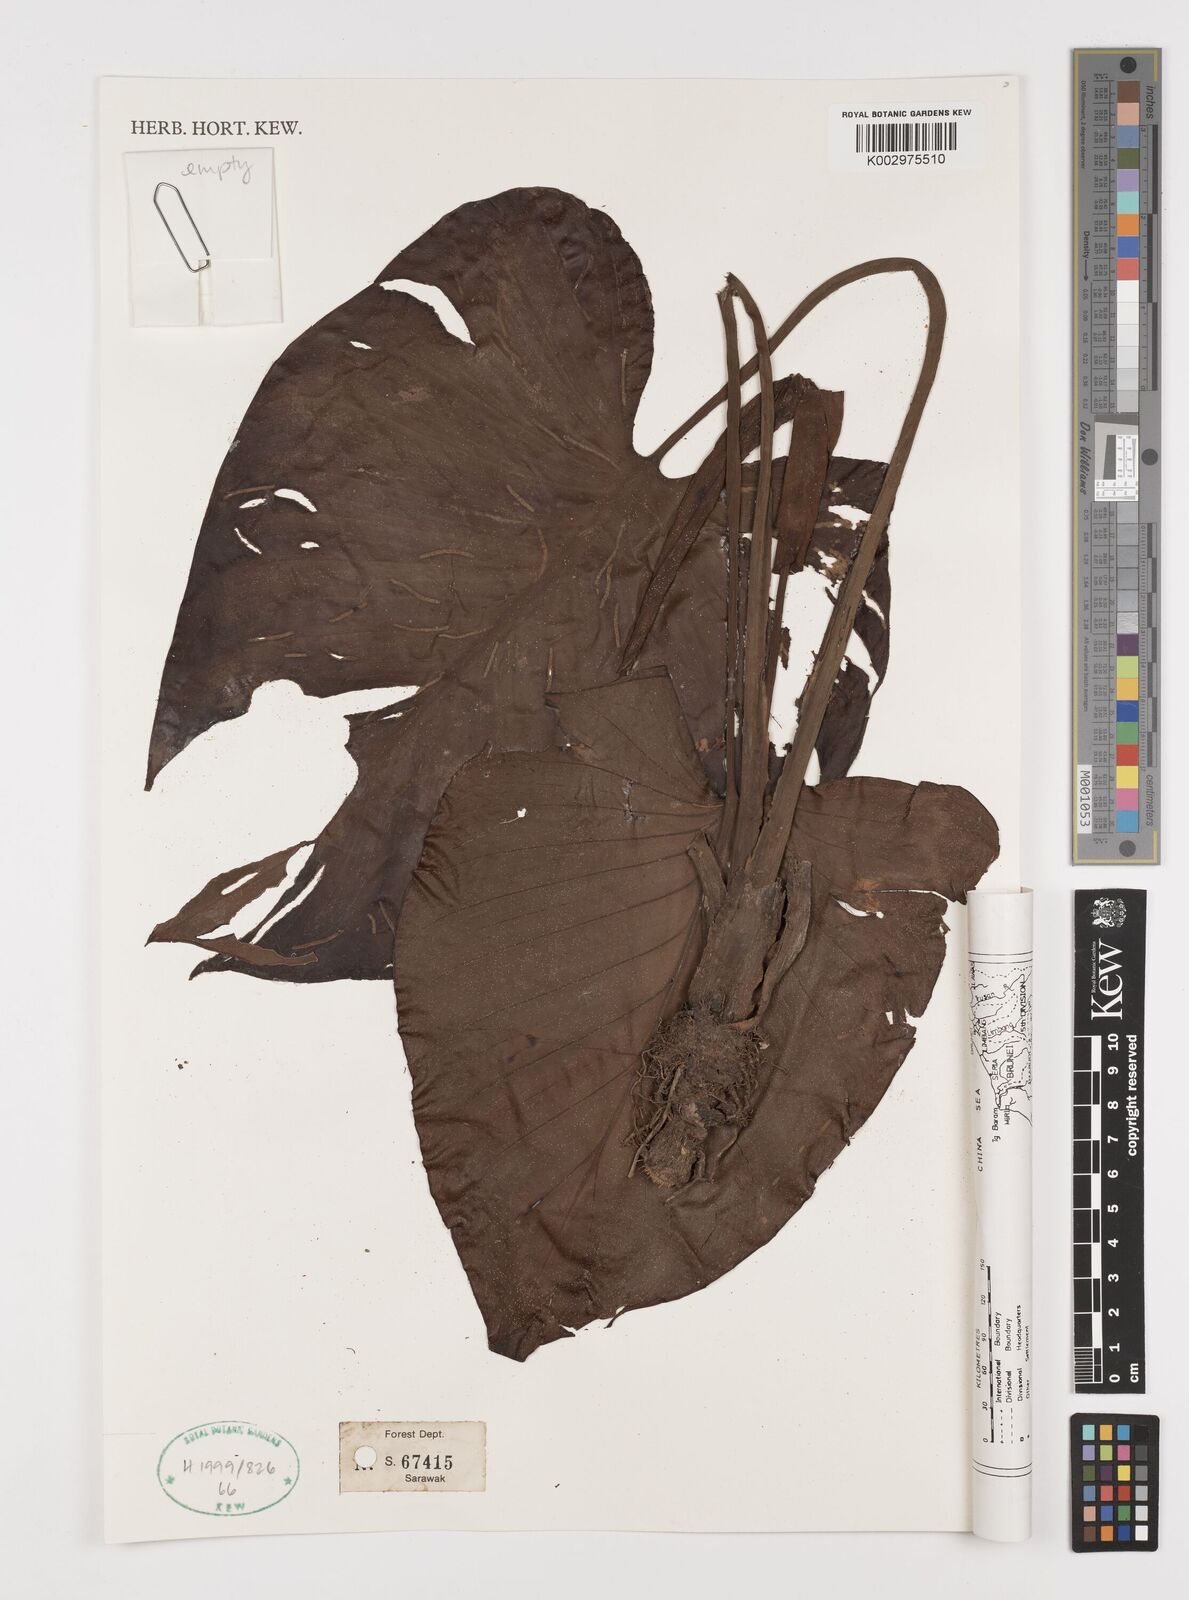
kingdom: Plantae
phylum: Tracheophyta
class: Liliopsida
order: Alismatales
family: Araceae
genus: Homalomena
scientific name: Homalomena rostrata
